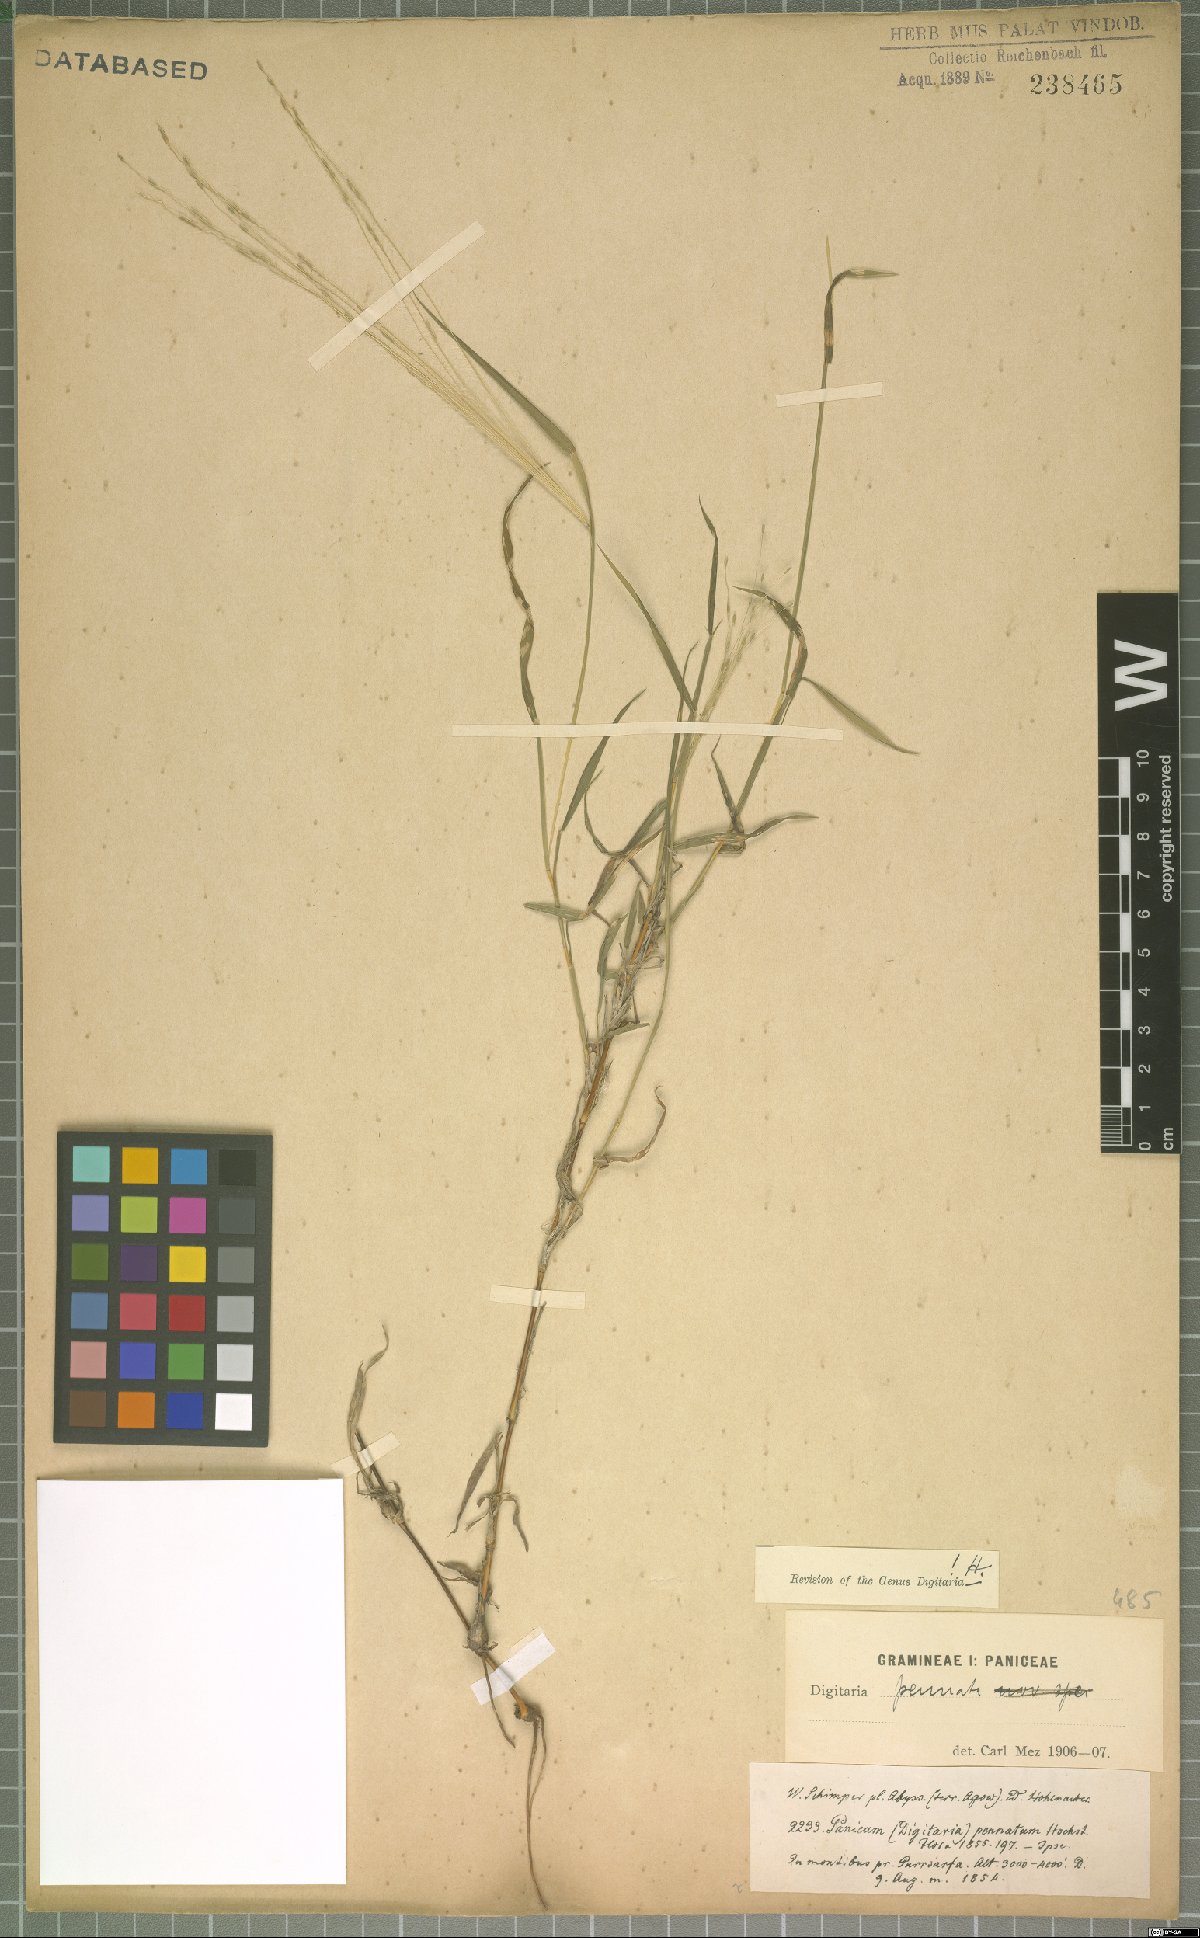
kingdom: Plantae
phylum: Tracheophyta
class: Liliopsida
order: Poales
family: Poaceae
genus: Digitaria
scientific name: Digitaria pennata
